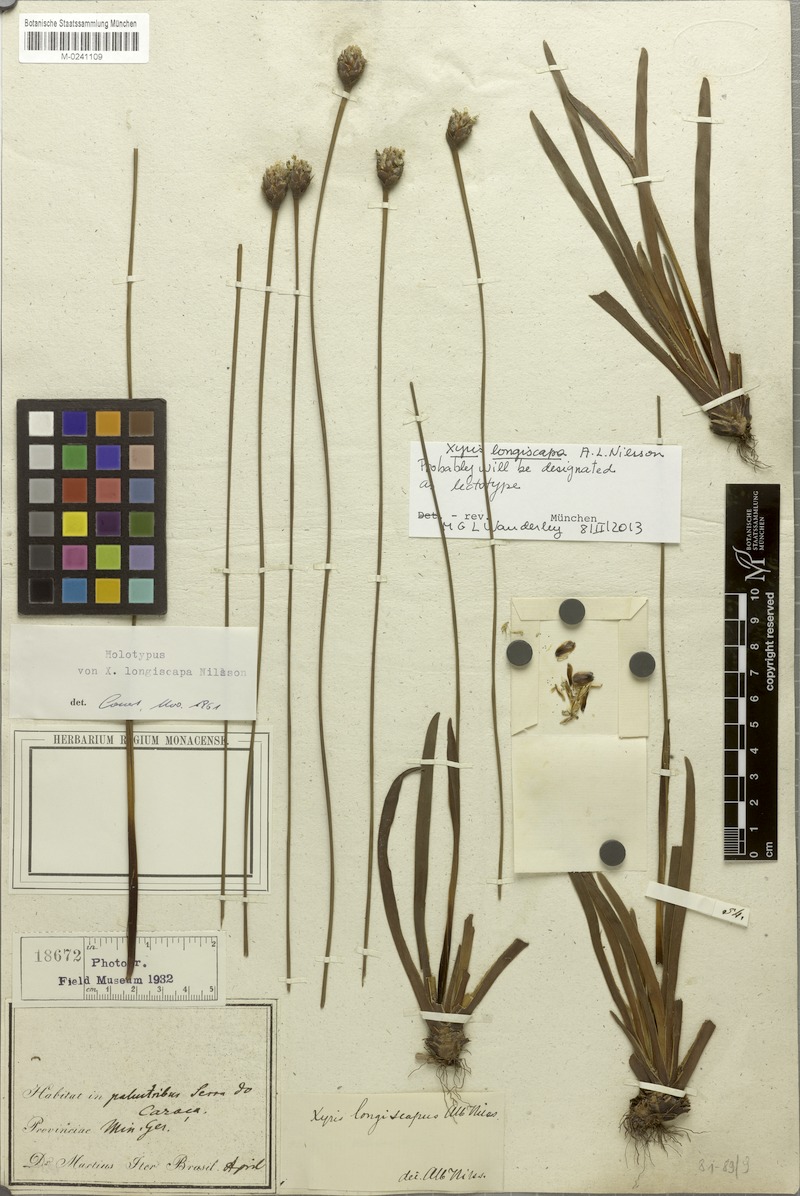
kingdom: Plantae
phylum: Tracheophyta
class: Liliopsida
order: Poales
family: Xyridaceae
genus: Xyris
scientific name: Xyris longiscapa
